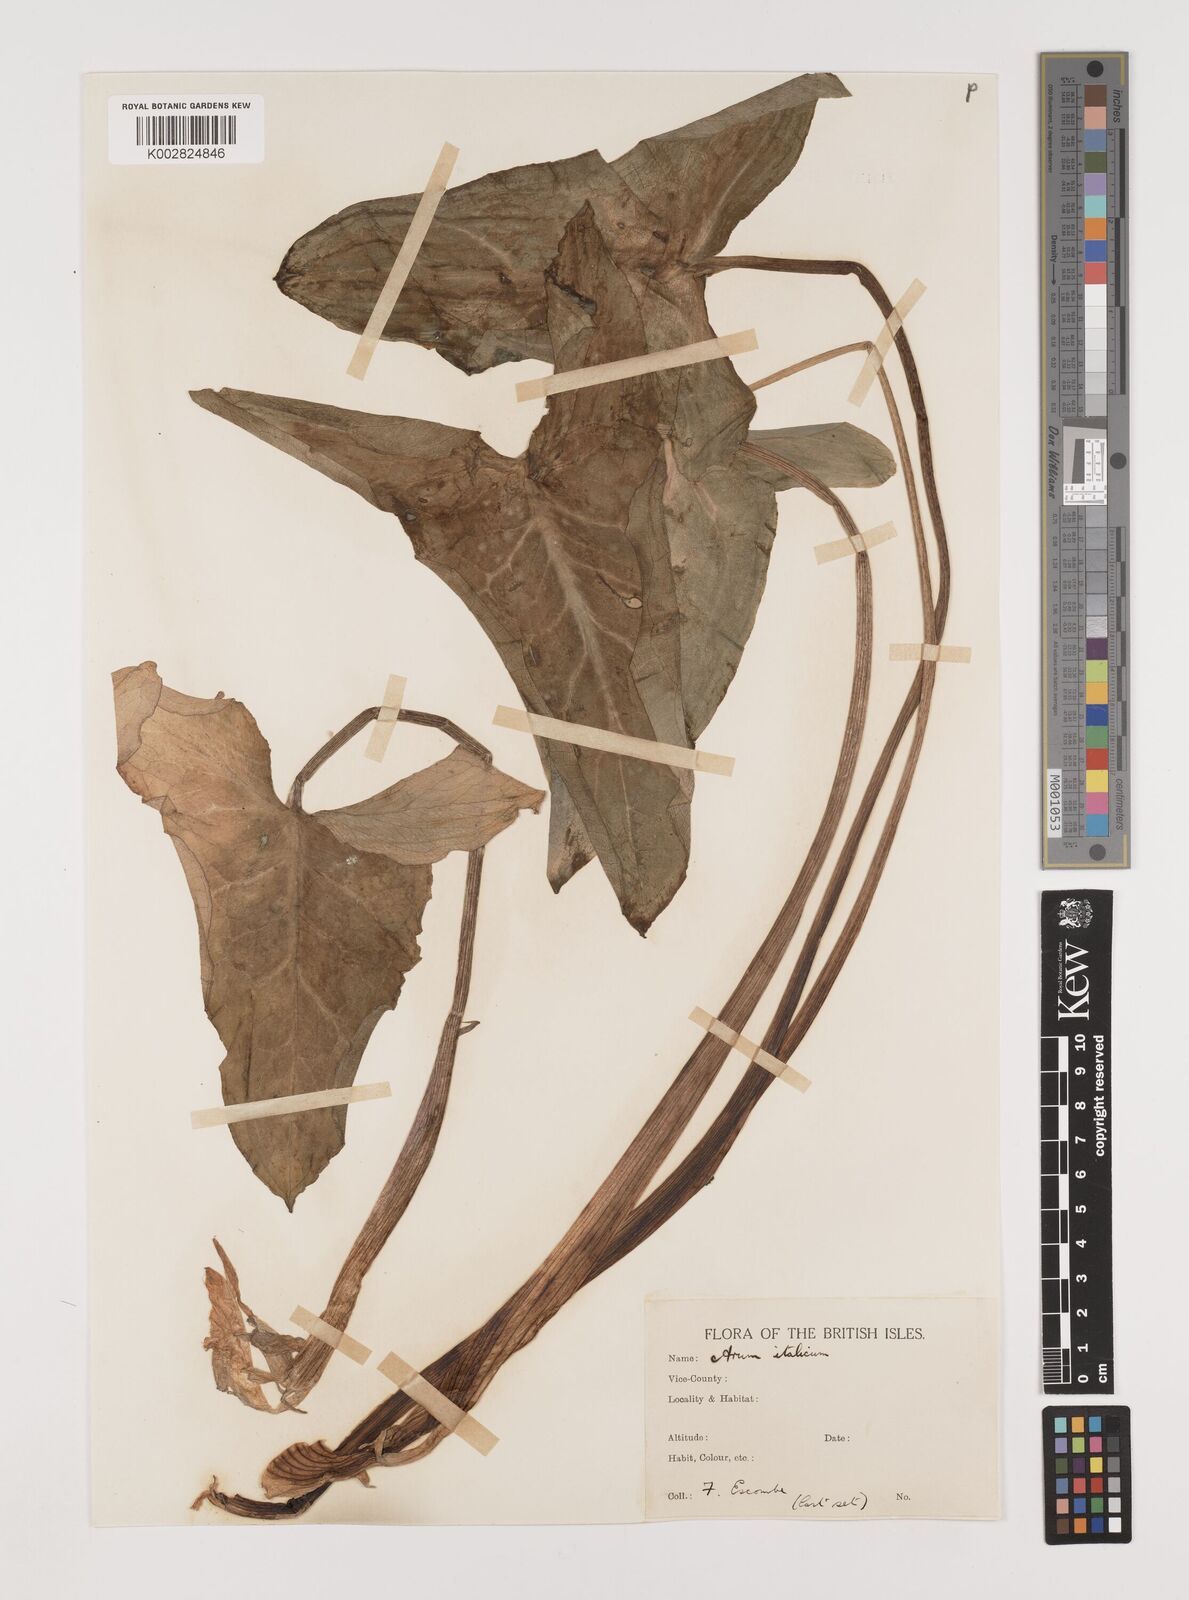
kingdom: Plantae
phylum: Tracheophyta
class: Liliopsida
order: Alismatales
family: Araceae
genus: Arum
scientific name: Arum italicum
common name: Italian lords-and-ladies
